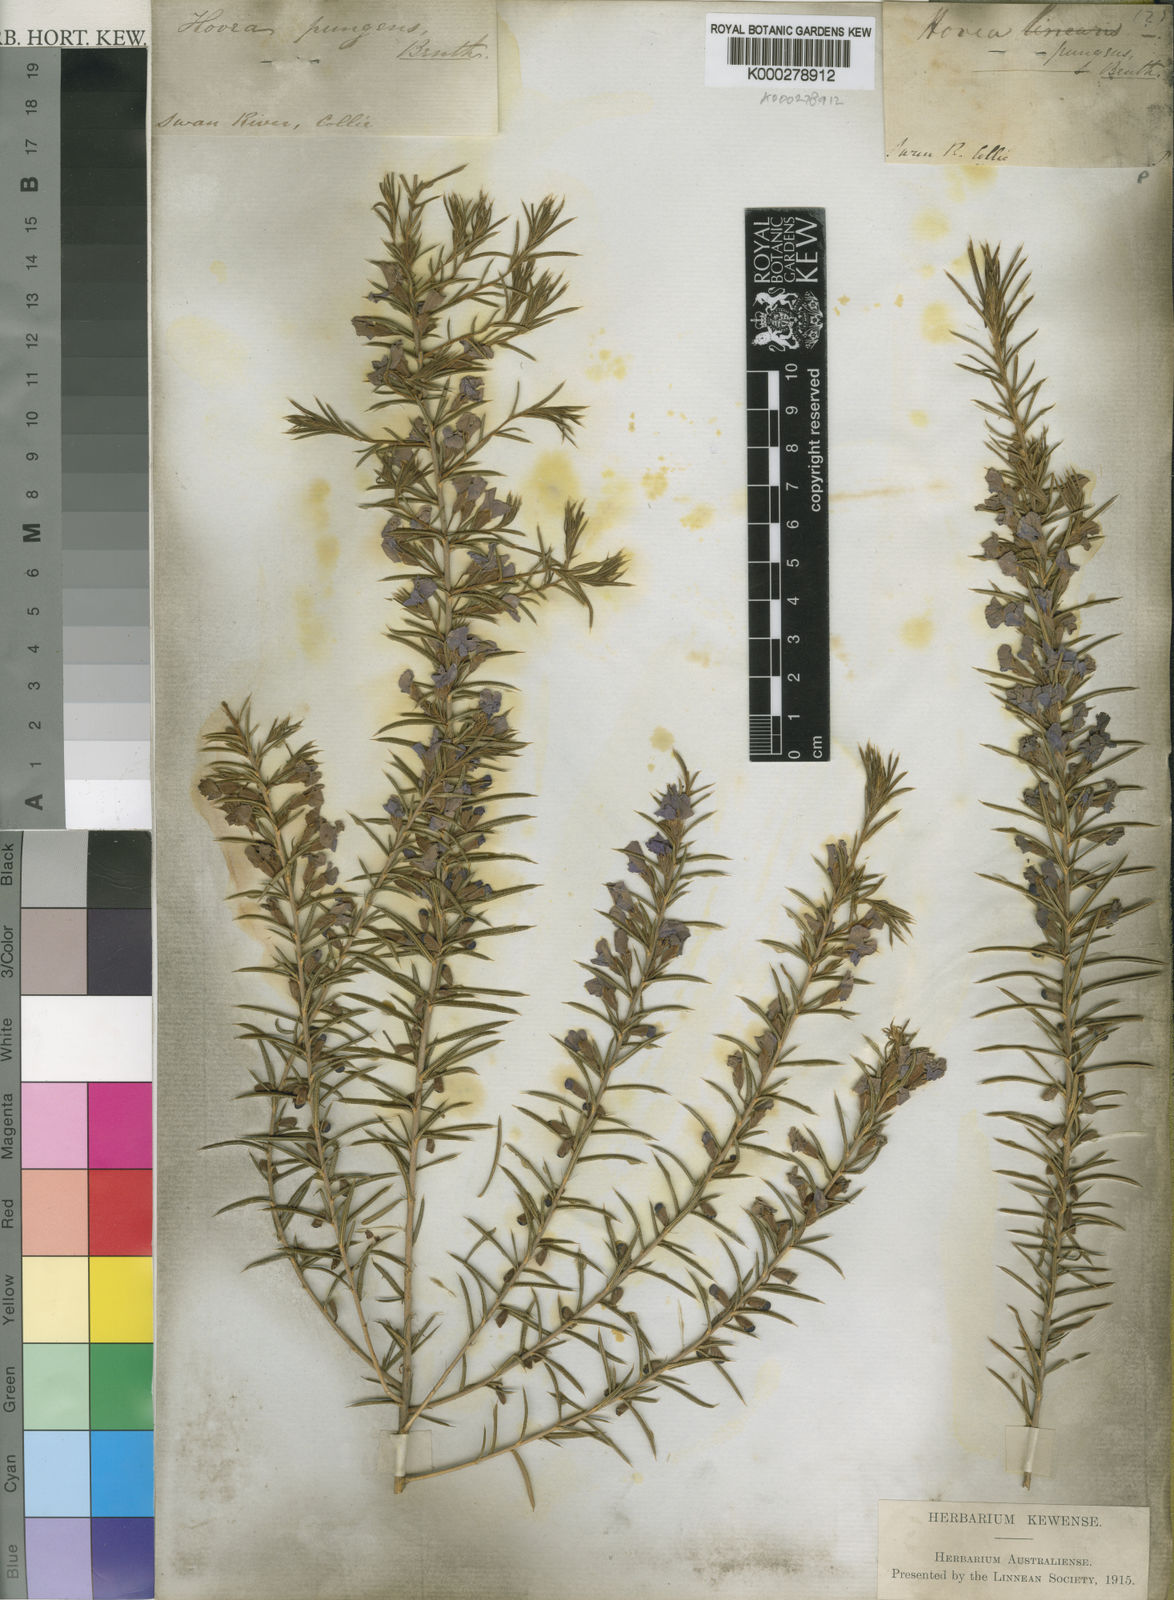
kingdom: Plantae
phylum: Tracheophyta
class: Magnoliopsida
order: Fabales
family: Fabaceae
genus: Hovea
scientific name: Hovea pungens
